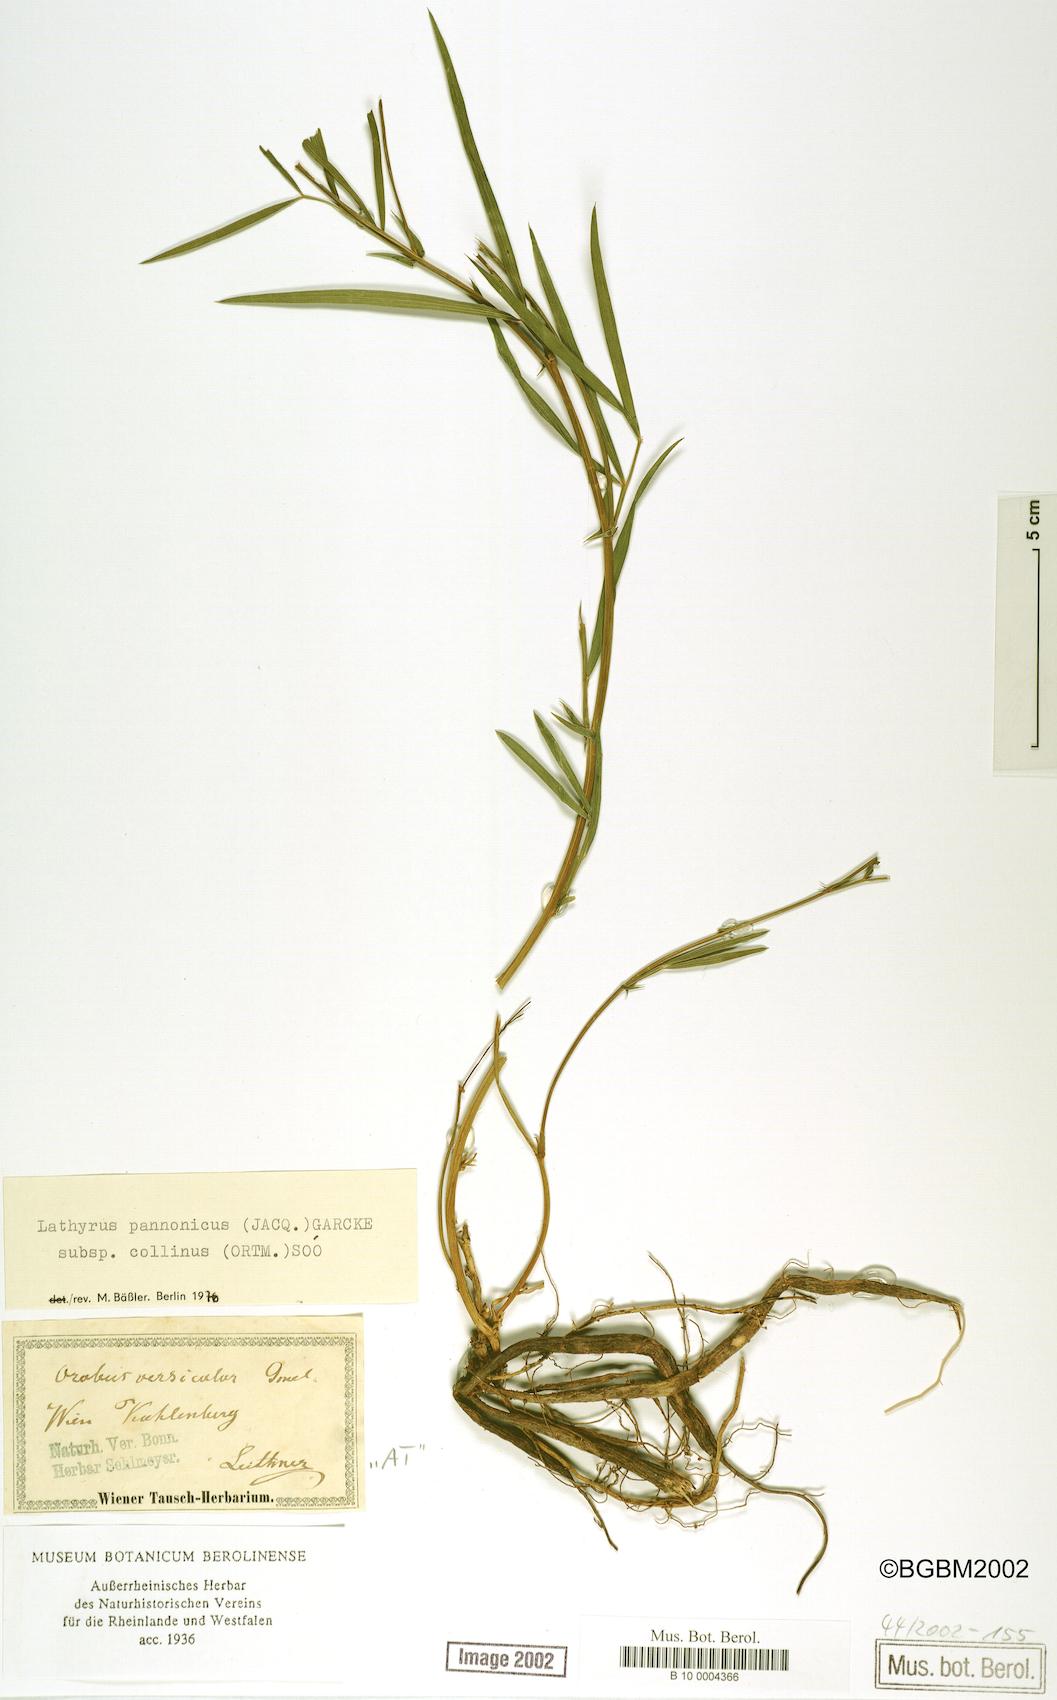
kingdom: Plantae
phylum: Tracheophyta
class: Magnoliopsida
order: Fabales
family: Fabaceae
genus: Lathyrus
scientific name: Lathyrus pannonicus
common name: Pea
